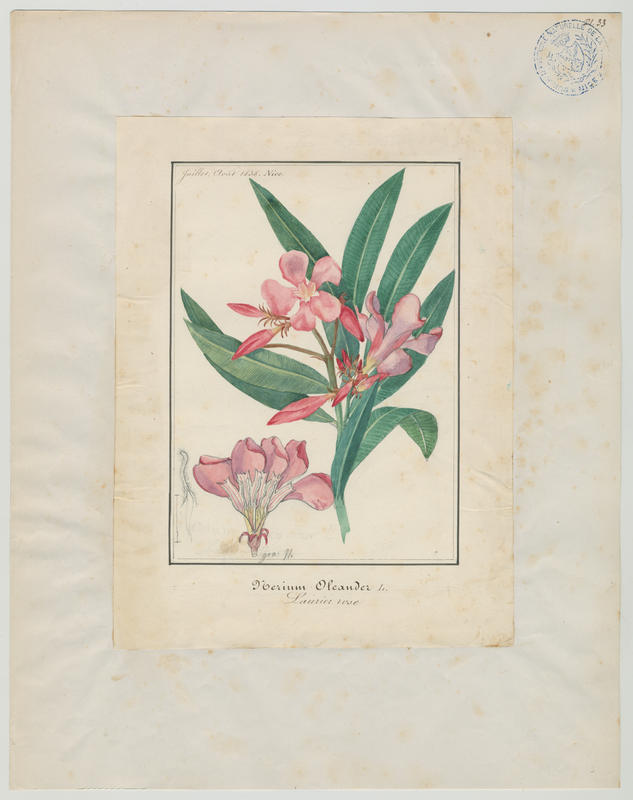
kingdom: Plantae
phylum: Tracheophyta
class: Magnoliopsida
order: Gentianales
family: Apocynaceae
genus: Nerium
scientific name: Nerium oleander
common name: Oleander
